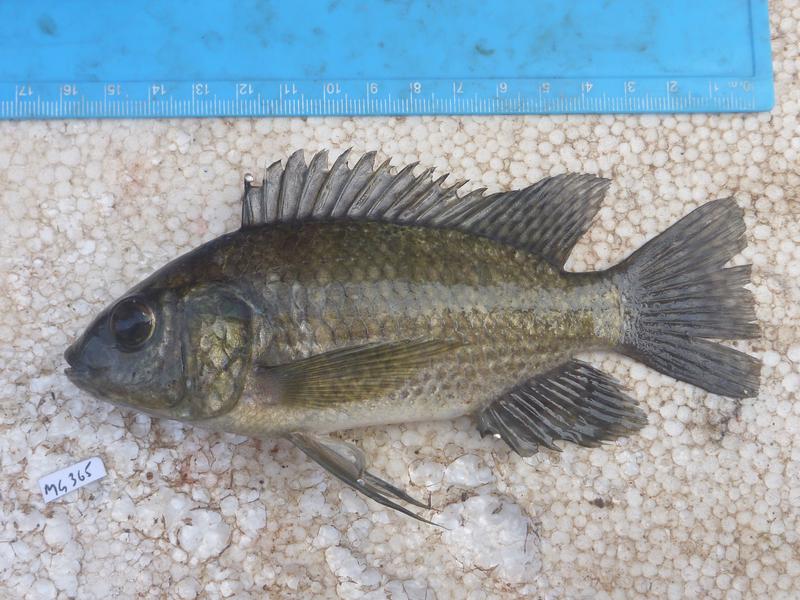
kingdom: Animalia
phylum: Chordata
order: Perciformes
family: Cichlidae
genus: Oreochromis
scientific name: Oreochromis leucostictus
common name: Blue spotted tilapia
